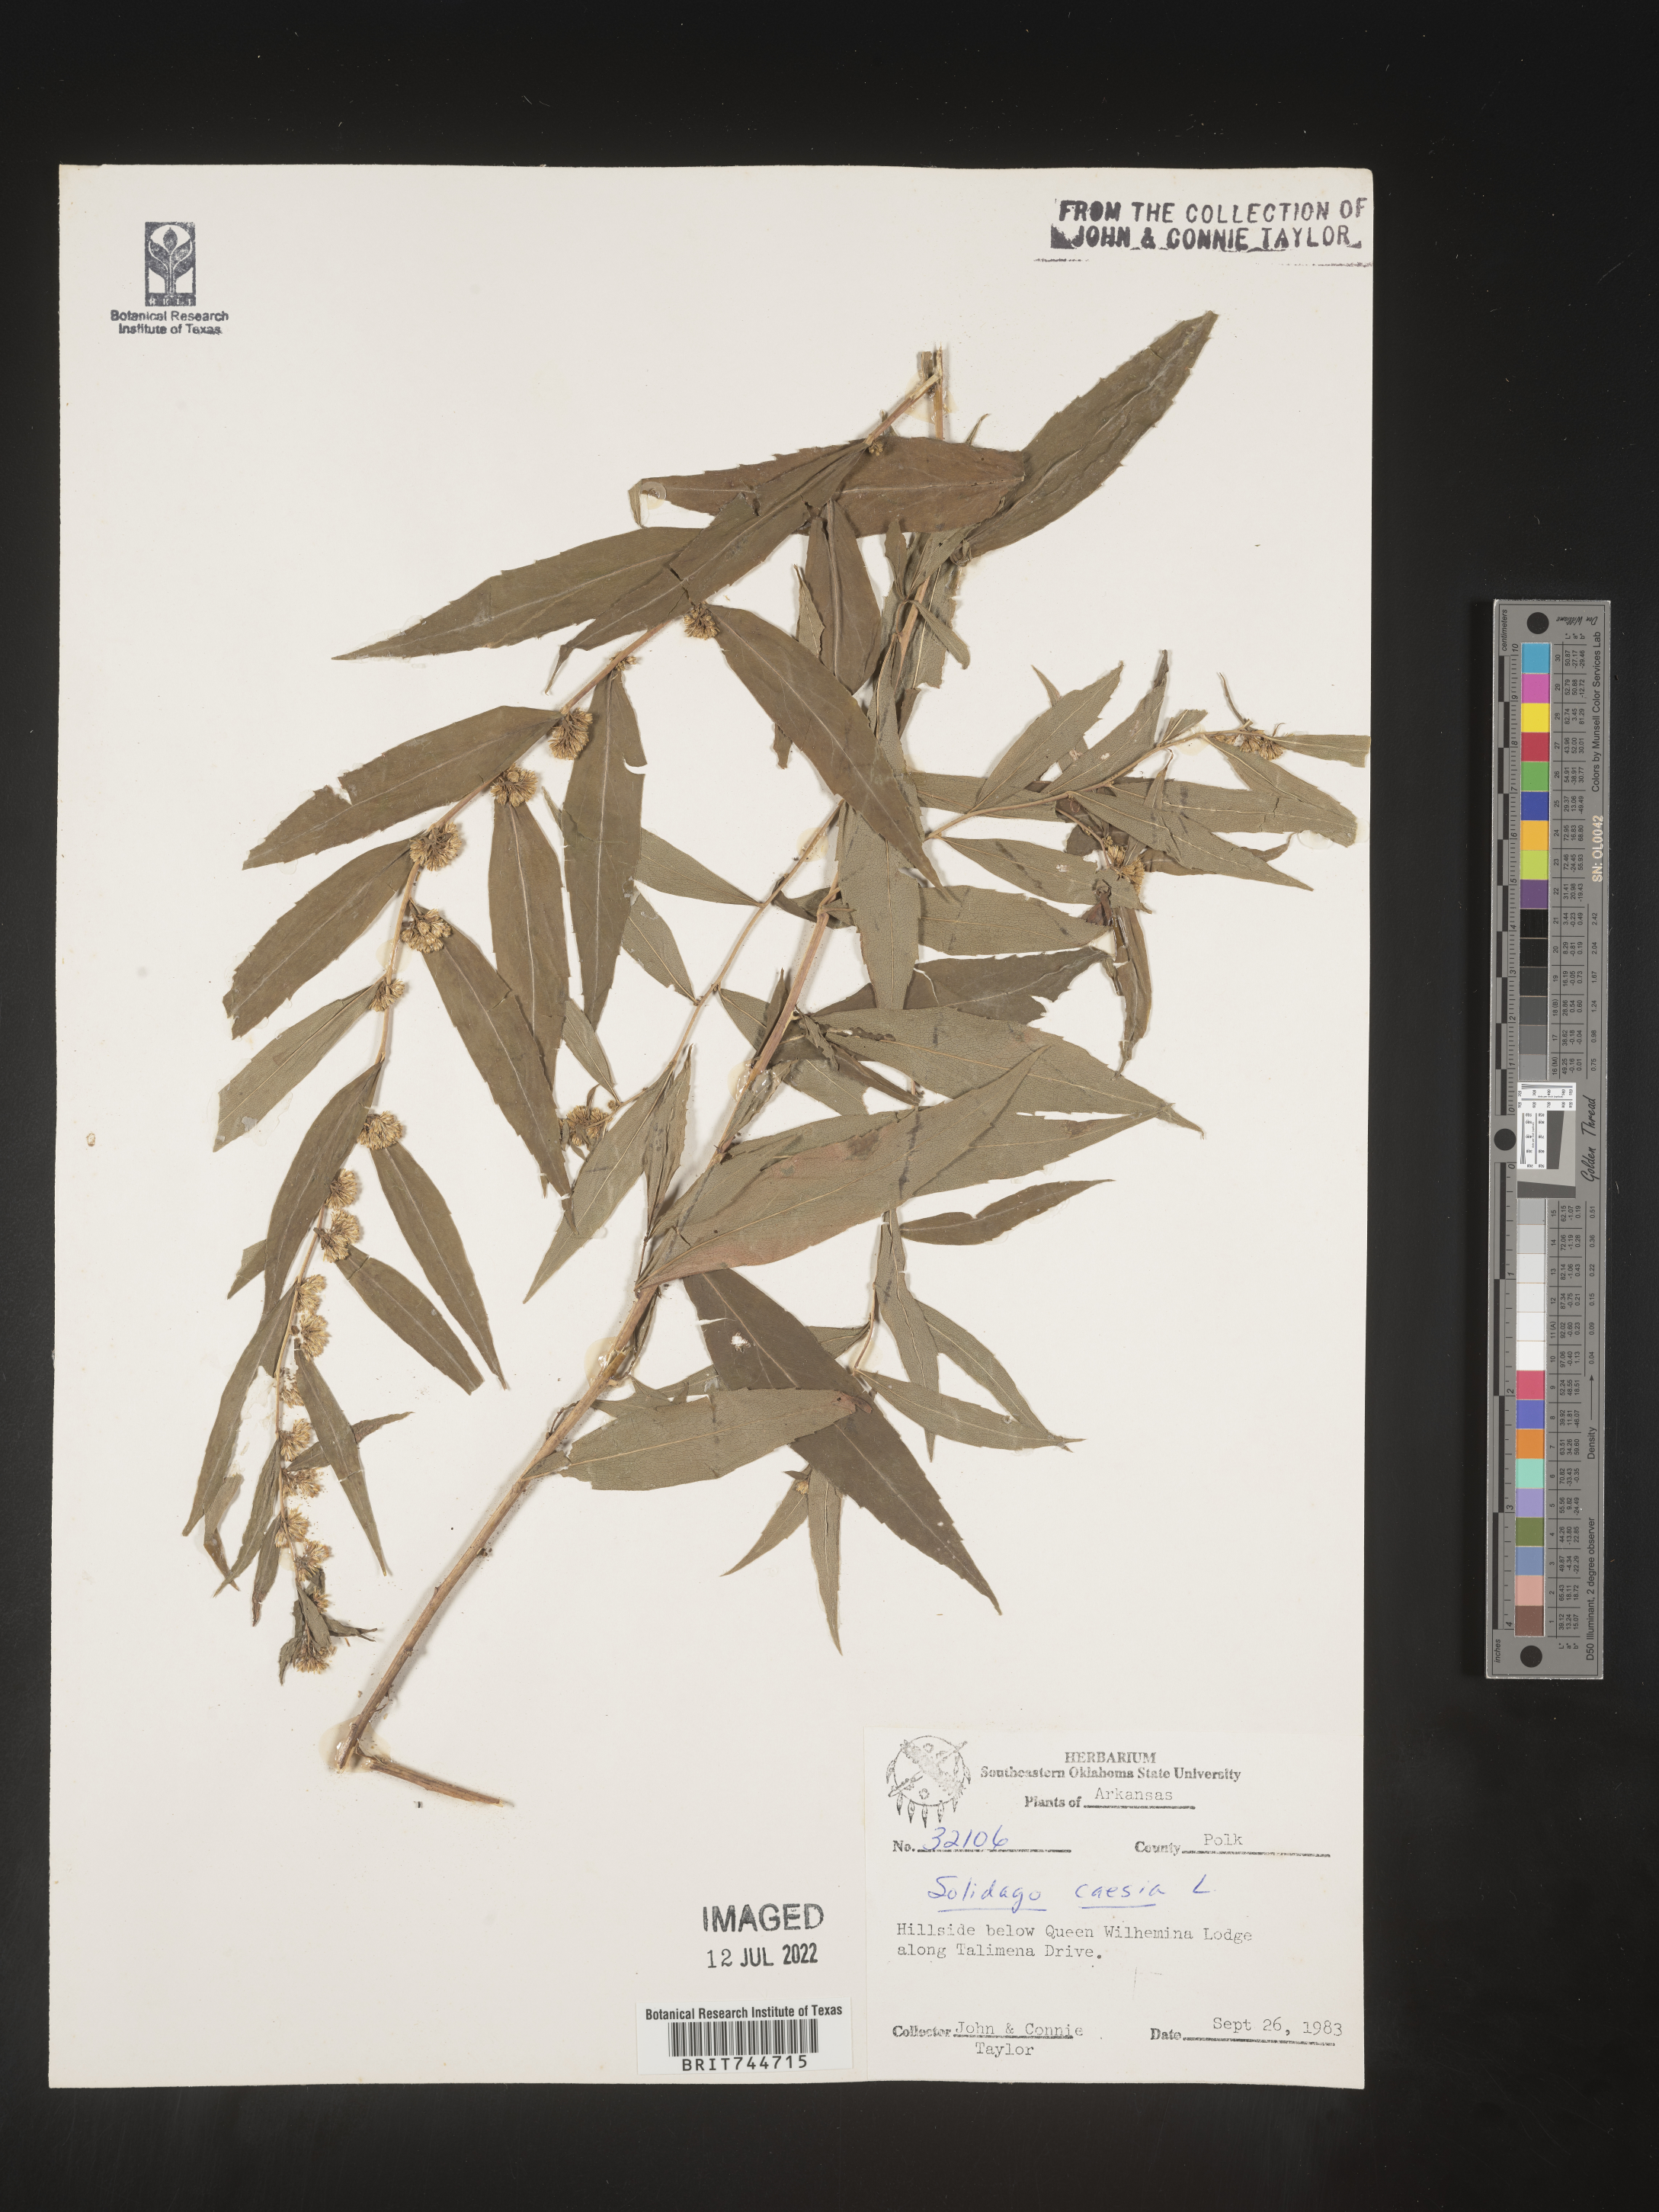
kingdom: Plantae
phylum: Tracheophyta
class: Magnoliopsida
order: Asterales
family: Asteraceae
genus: Solidago
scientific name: Solidago caesia
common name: Woodland goldenrod
